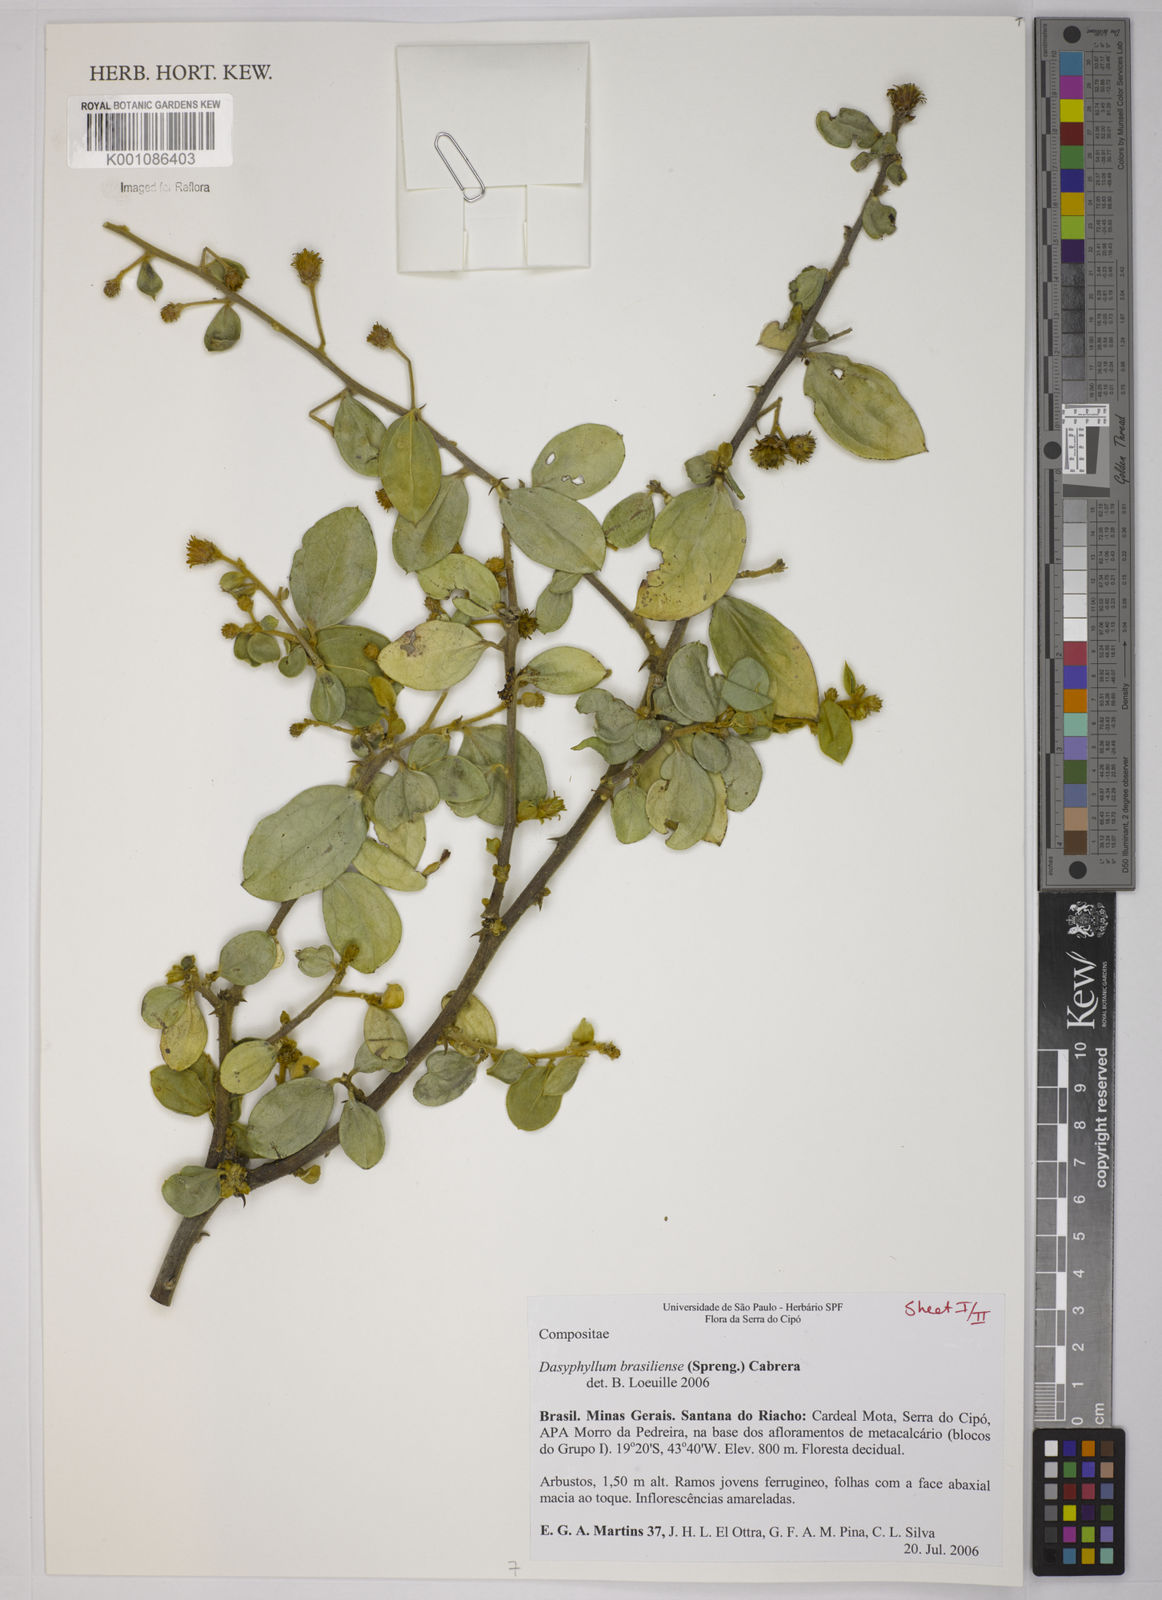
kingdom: Plantae
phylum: Tracheophyta
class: Magnoliopsida
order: Asterales
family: Asteraceae
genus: Dasyphyllum
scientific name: Dasyphyllum brasiliense
